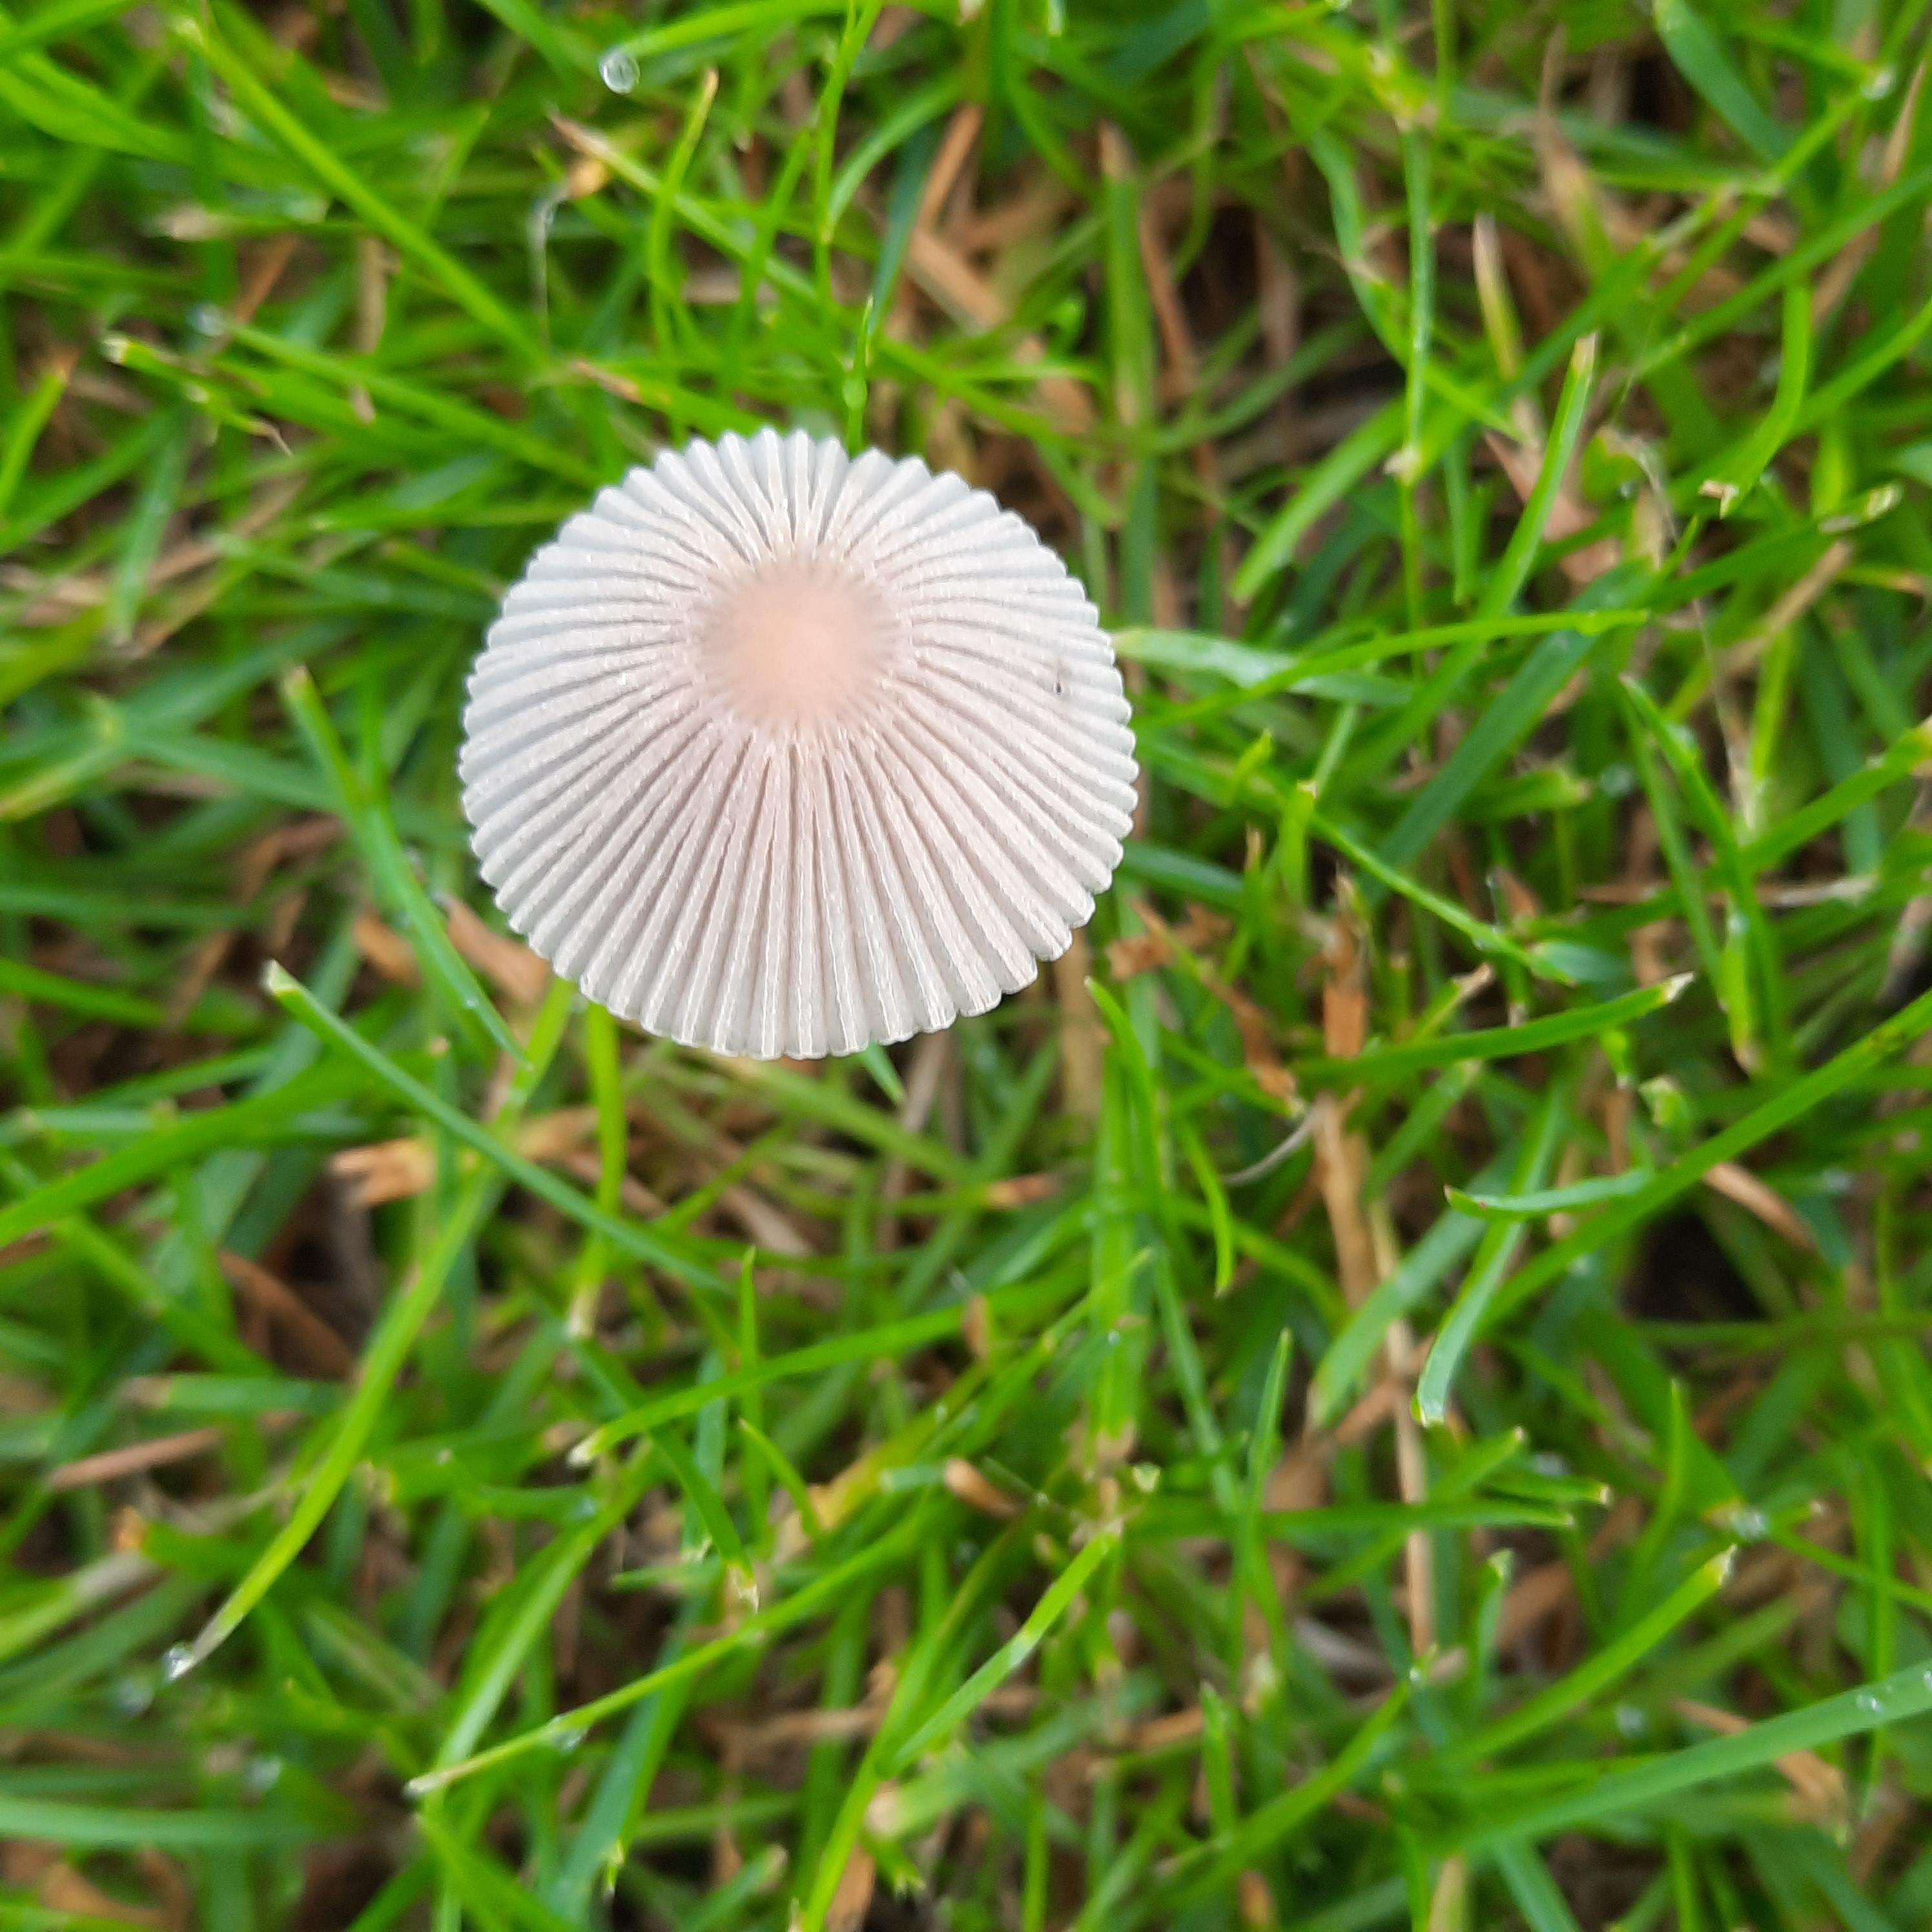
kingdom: Fungi
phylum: Basidiomycota
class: Agaricomycetes
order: Agaricales
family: Psathyrellaceae
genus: Parasola
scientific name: Parasola
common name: hjulhat
